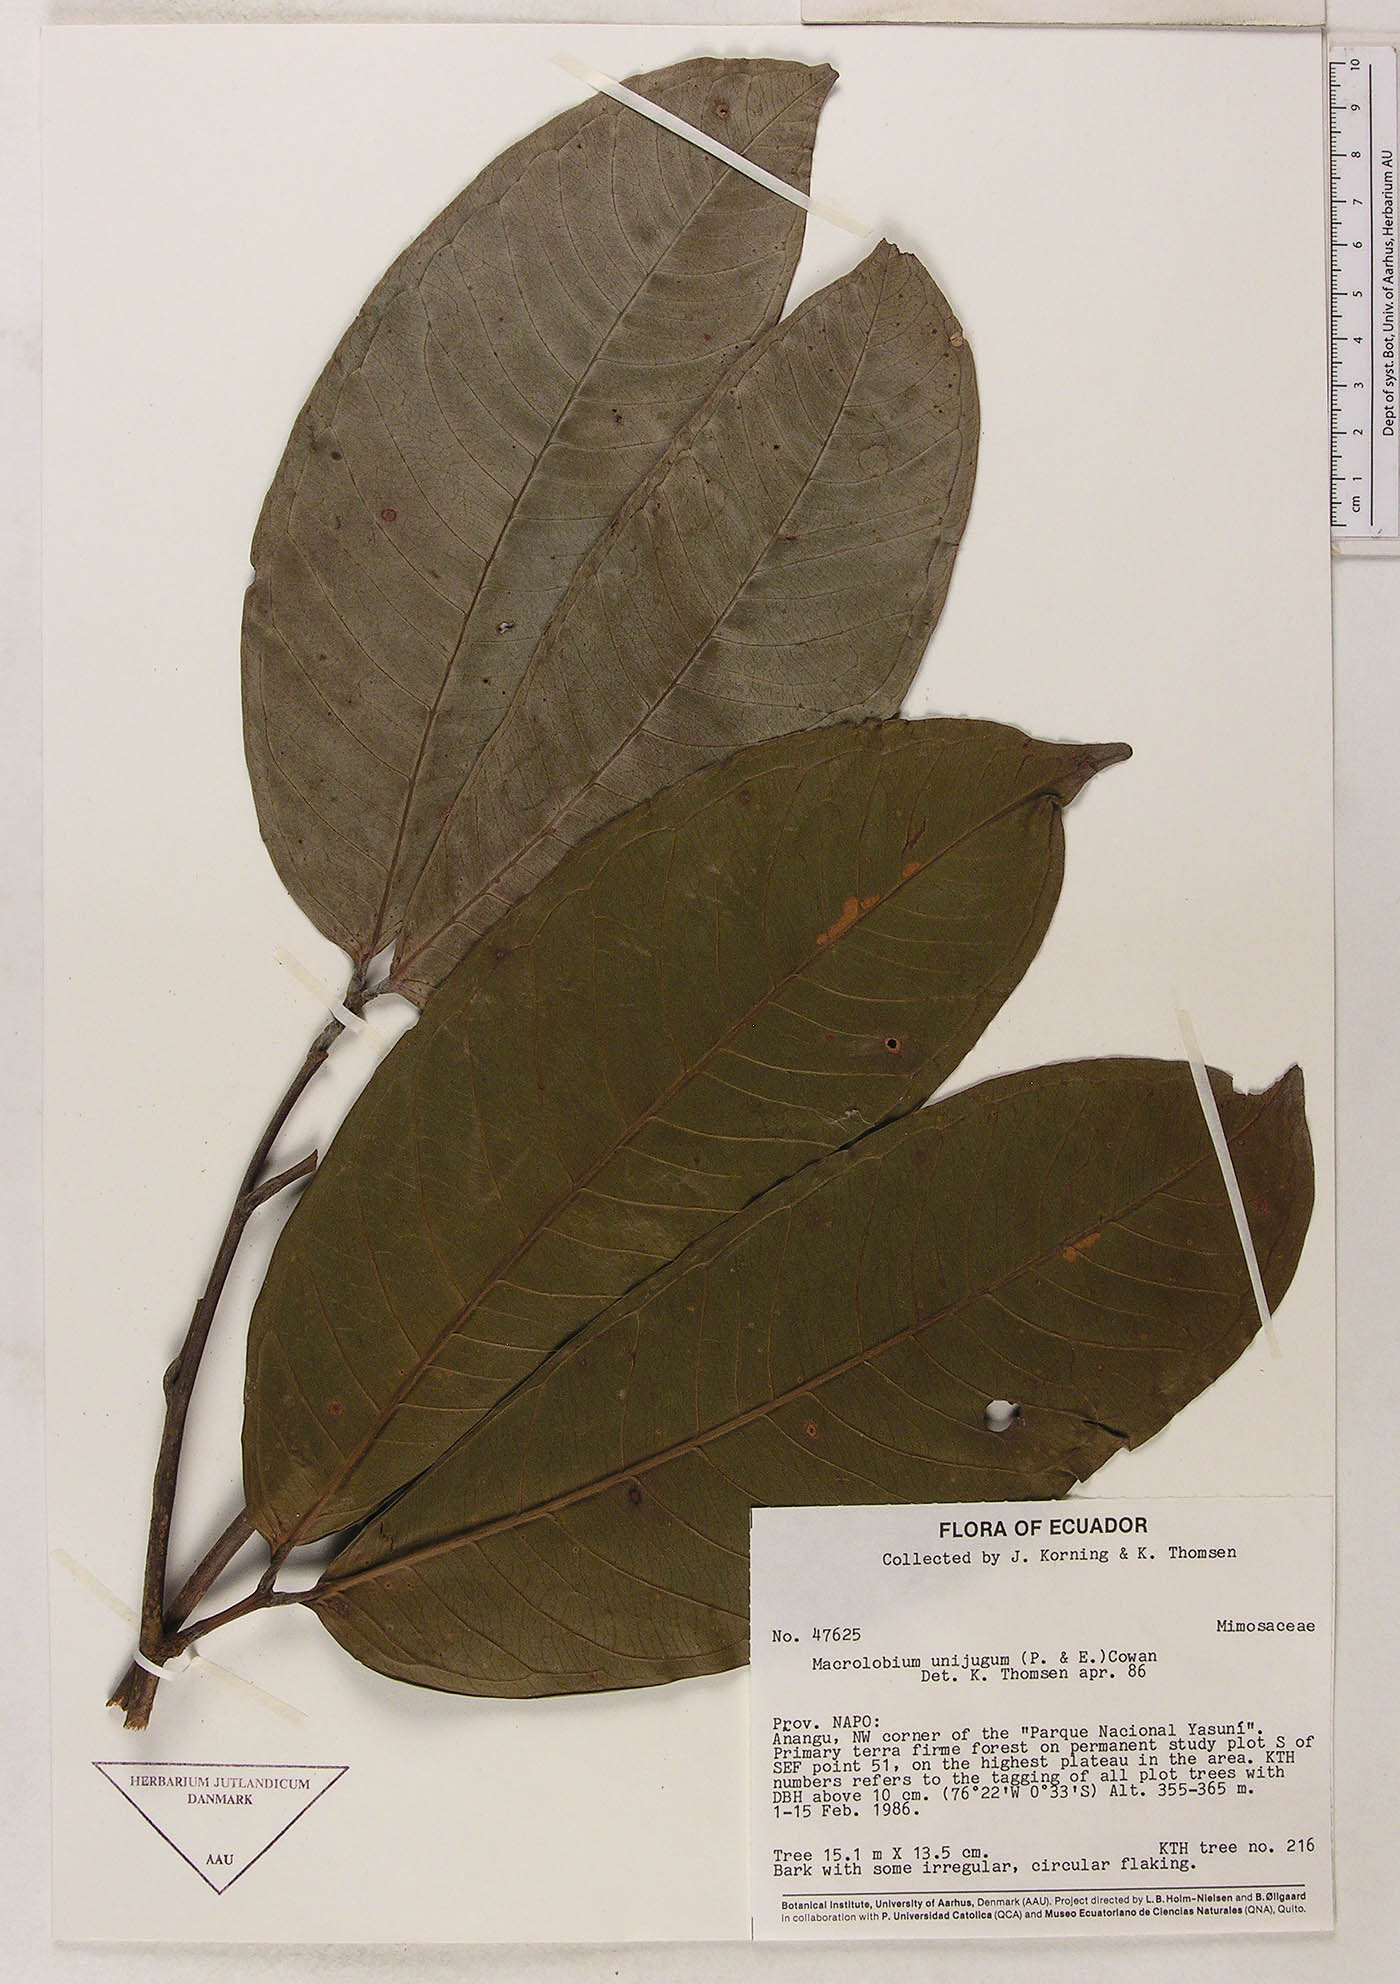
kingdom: Plantae
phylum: Tracheophyta
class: Magnoliopsida
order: Fabales
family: Fabaceae
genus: Macrolobium
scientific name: Macrolobium limbatum
